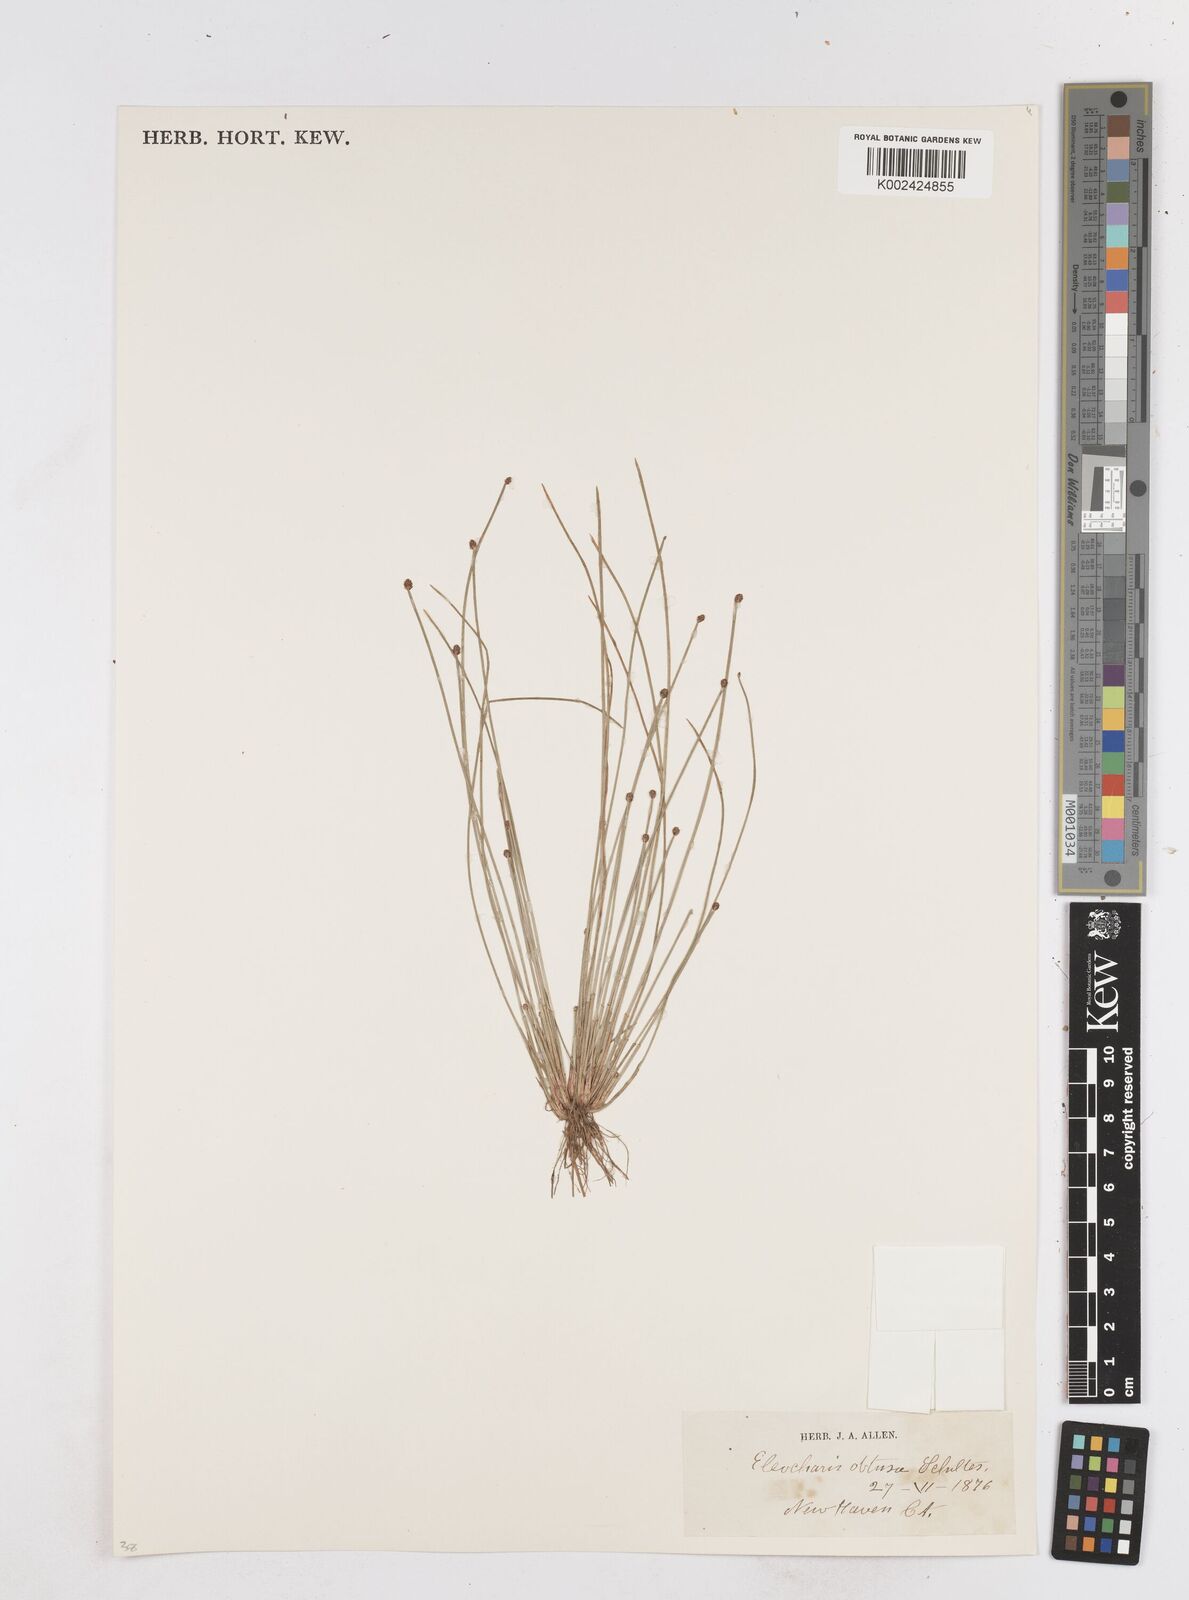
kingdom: Plantae
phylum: Tracheophyta
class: Liliopsida
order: Poales
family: Cyperaceae
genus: Eleocharis
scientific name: Eleocharis obtusa
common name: Blunt spikerush
